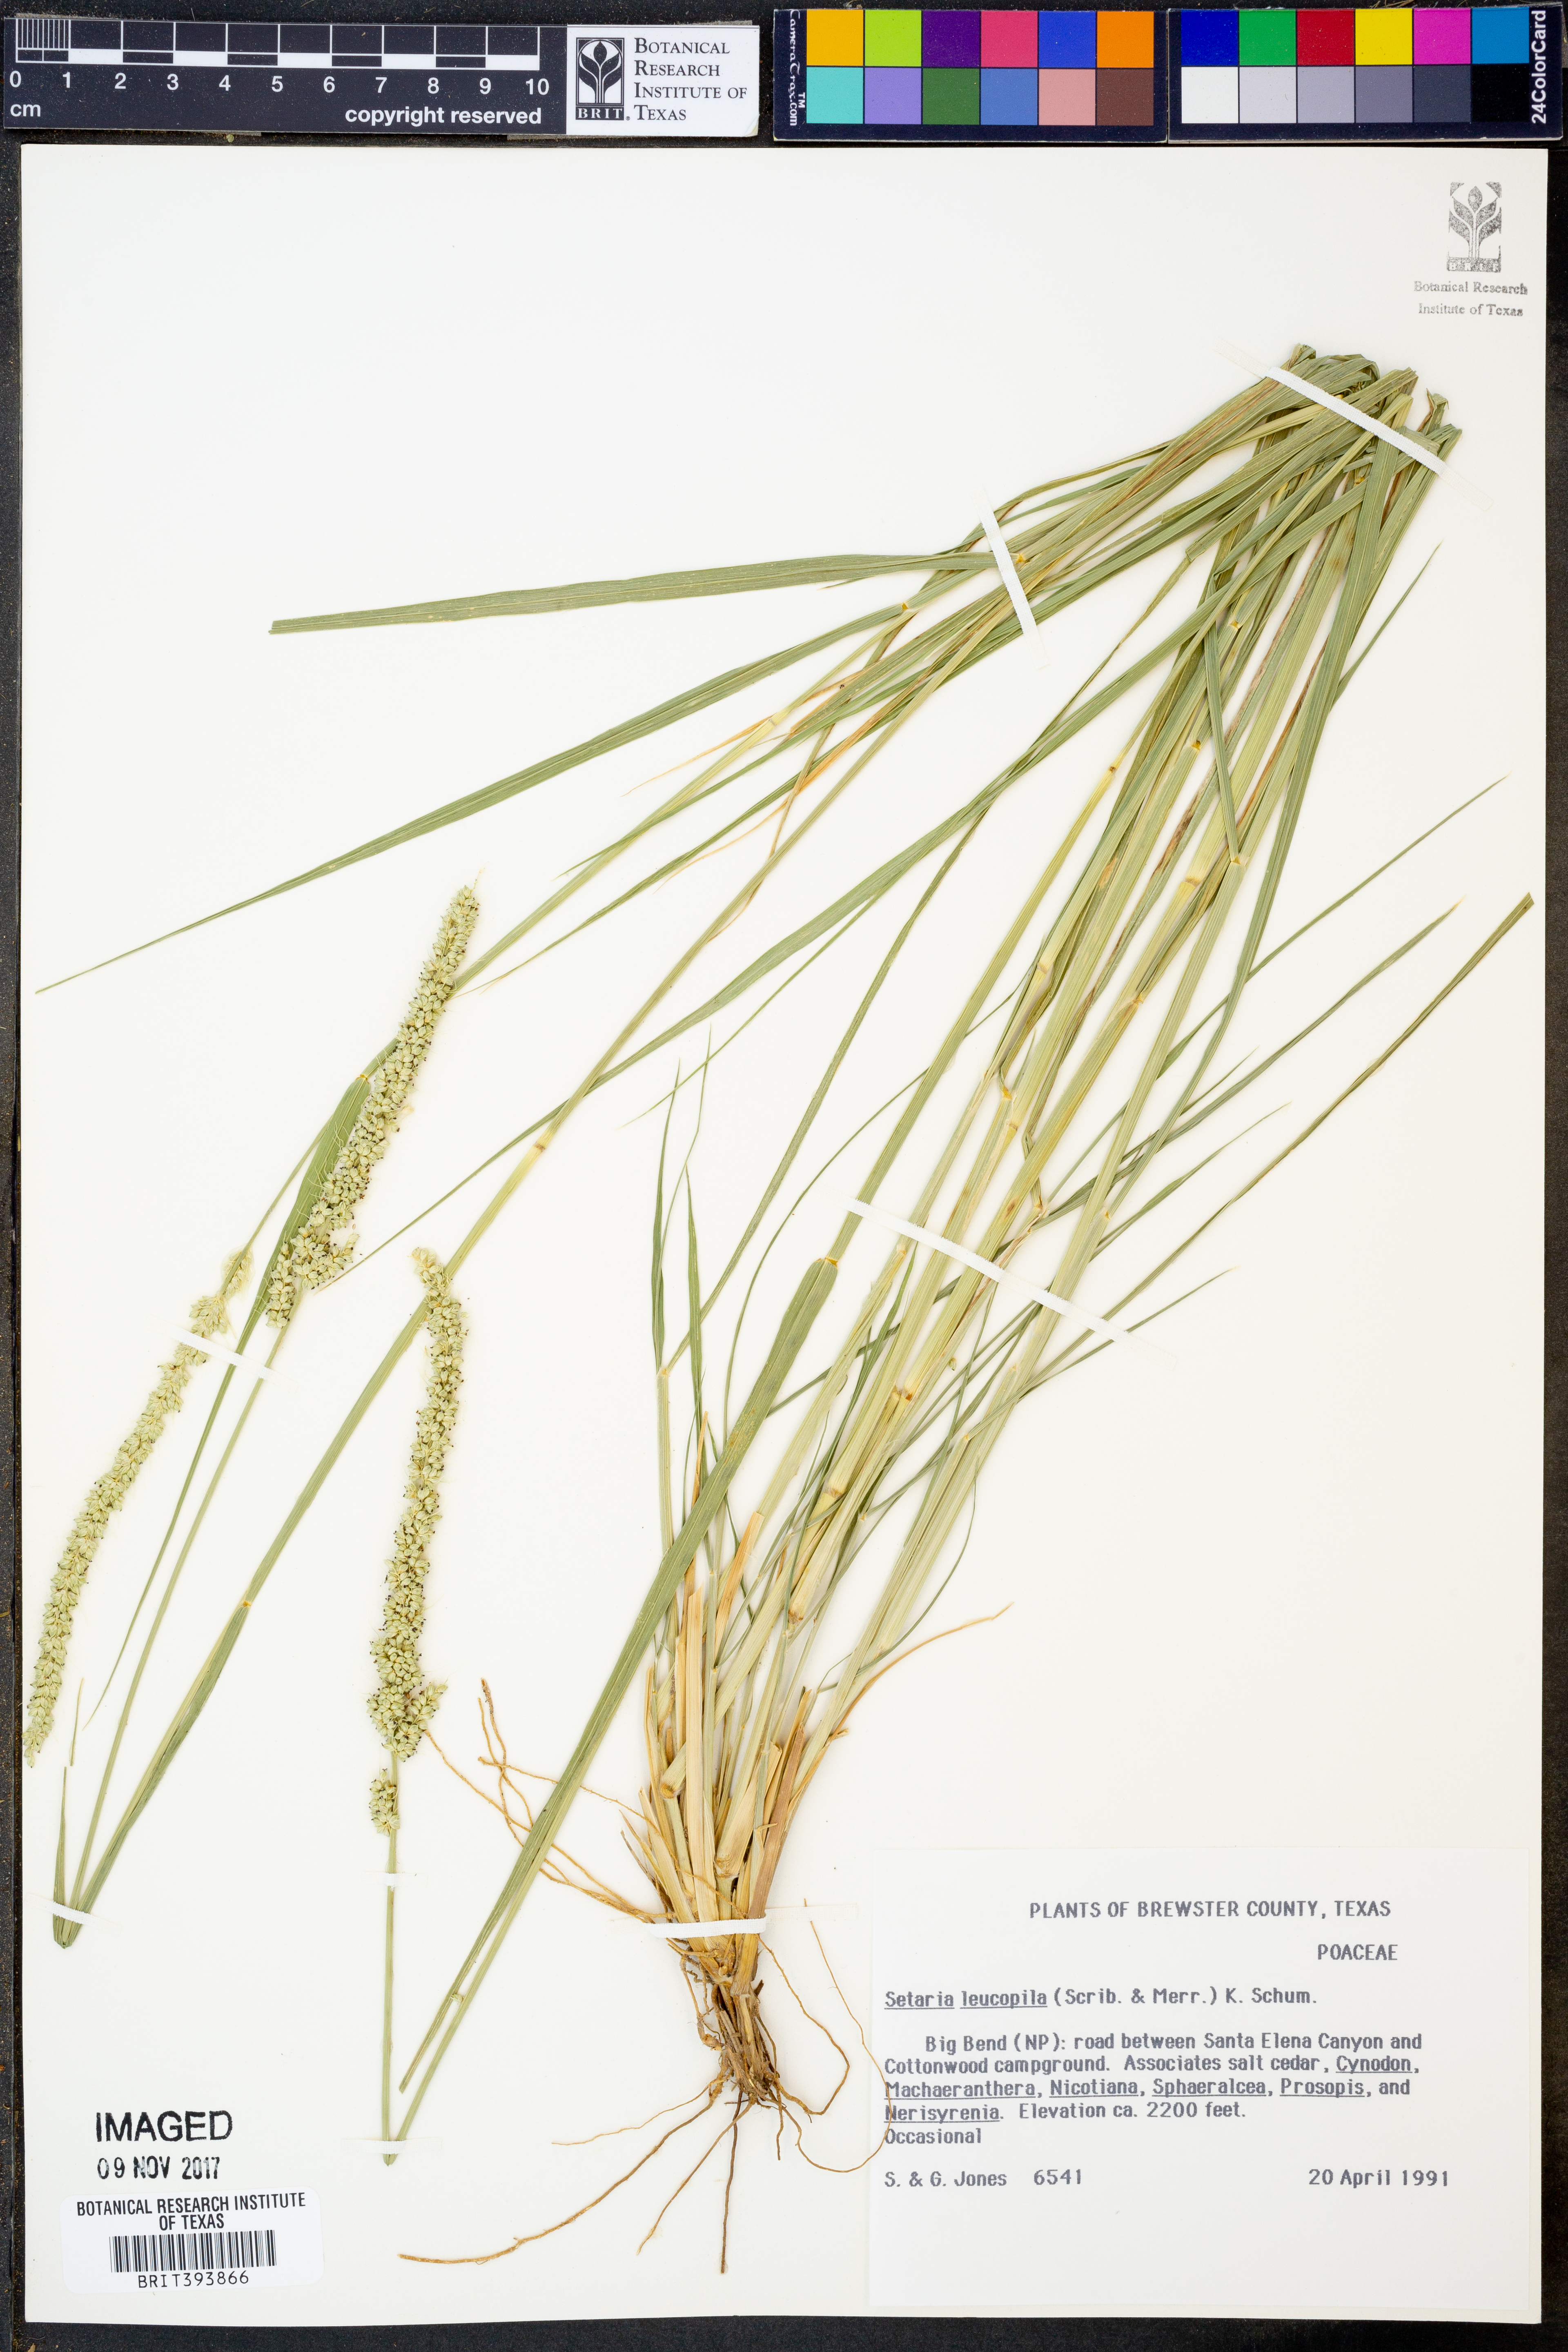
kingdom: Plantae
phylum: Tracheophyta
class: Liliopsida
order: Poales
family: Poaceae
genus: Setaria
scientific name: Setaria leucopila
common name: Plains bristle grass
